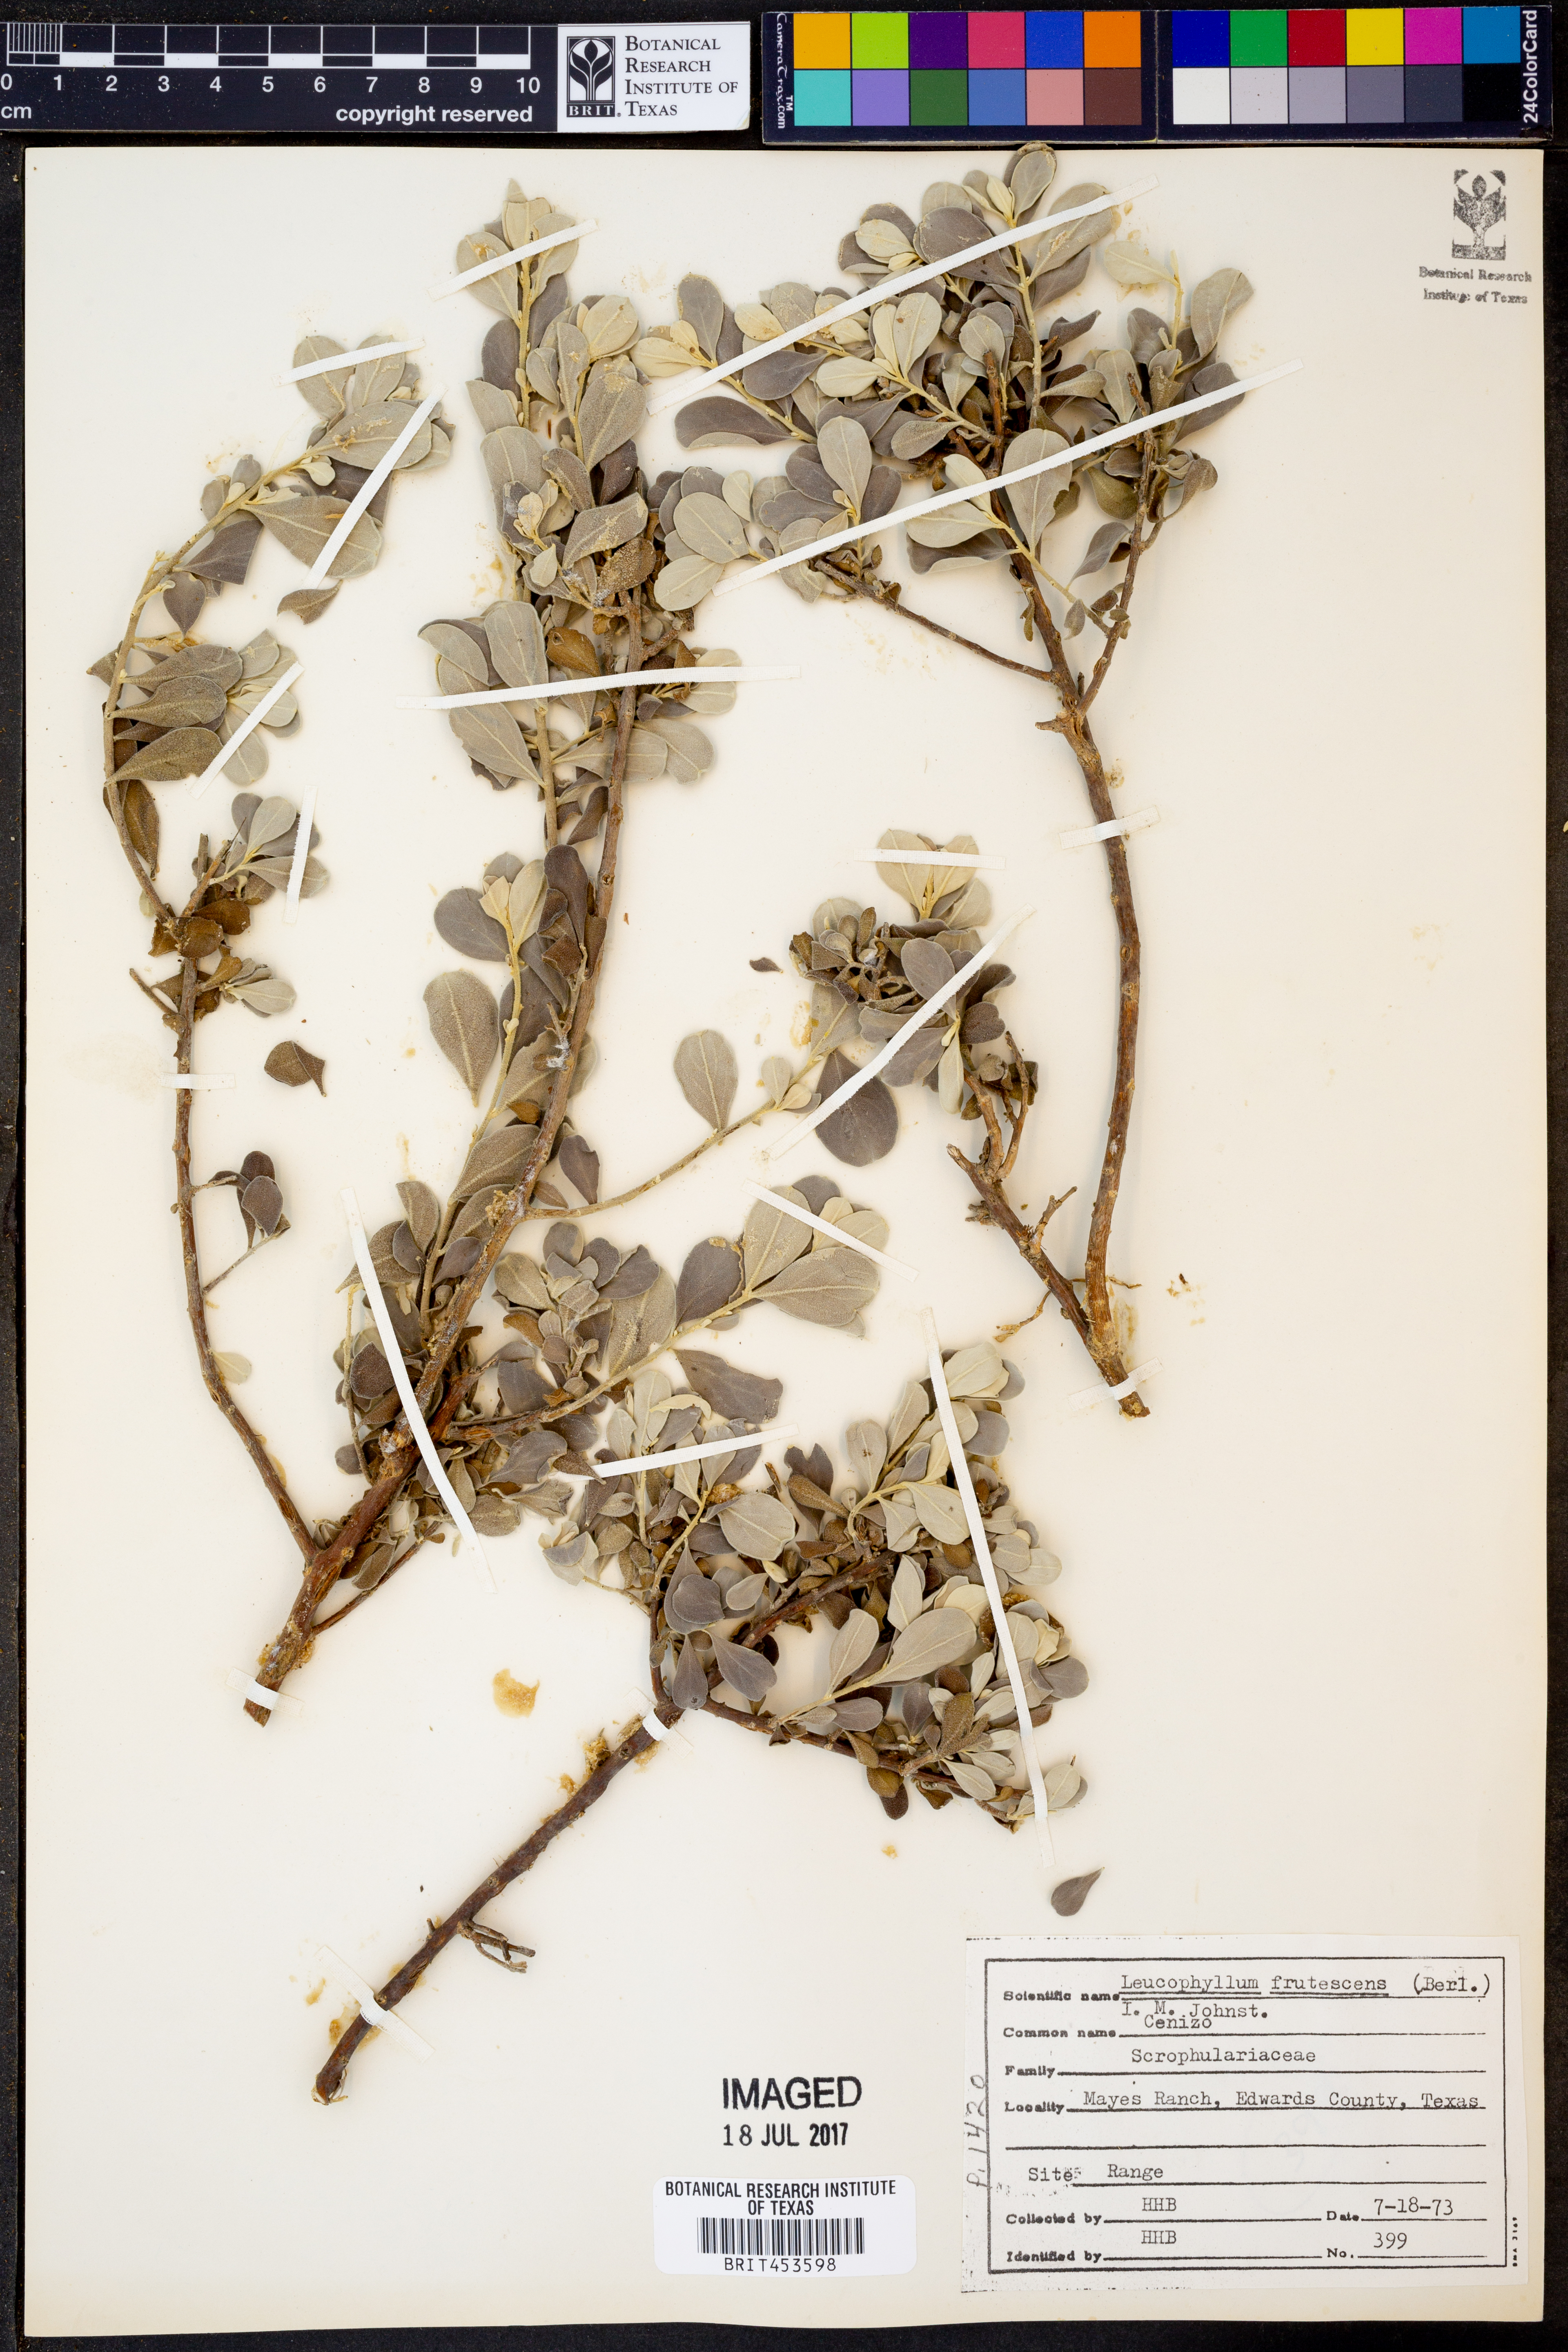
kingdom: Plantae
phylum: Tracheophyta
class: Magnoliopsida
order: Lamiales
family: Scrophulariaceae
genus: Leucophyllum
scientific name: Leucophyllum frutescens
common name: Texas silverleaf
